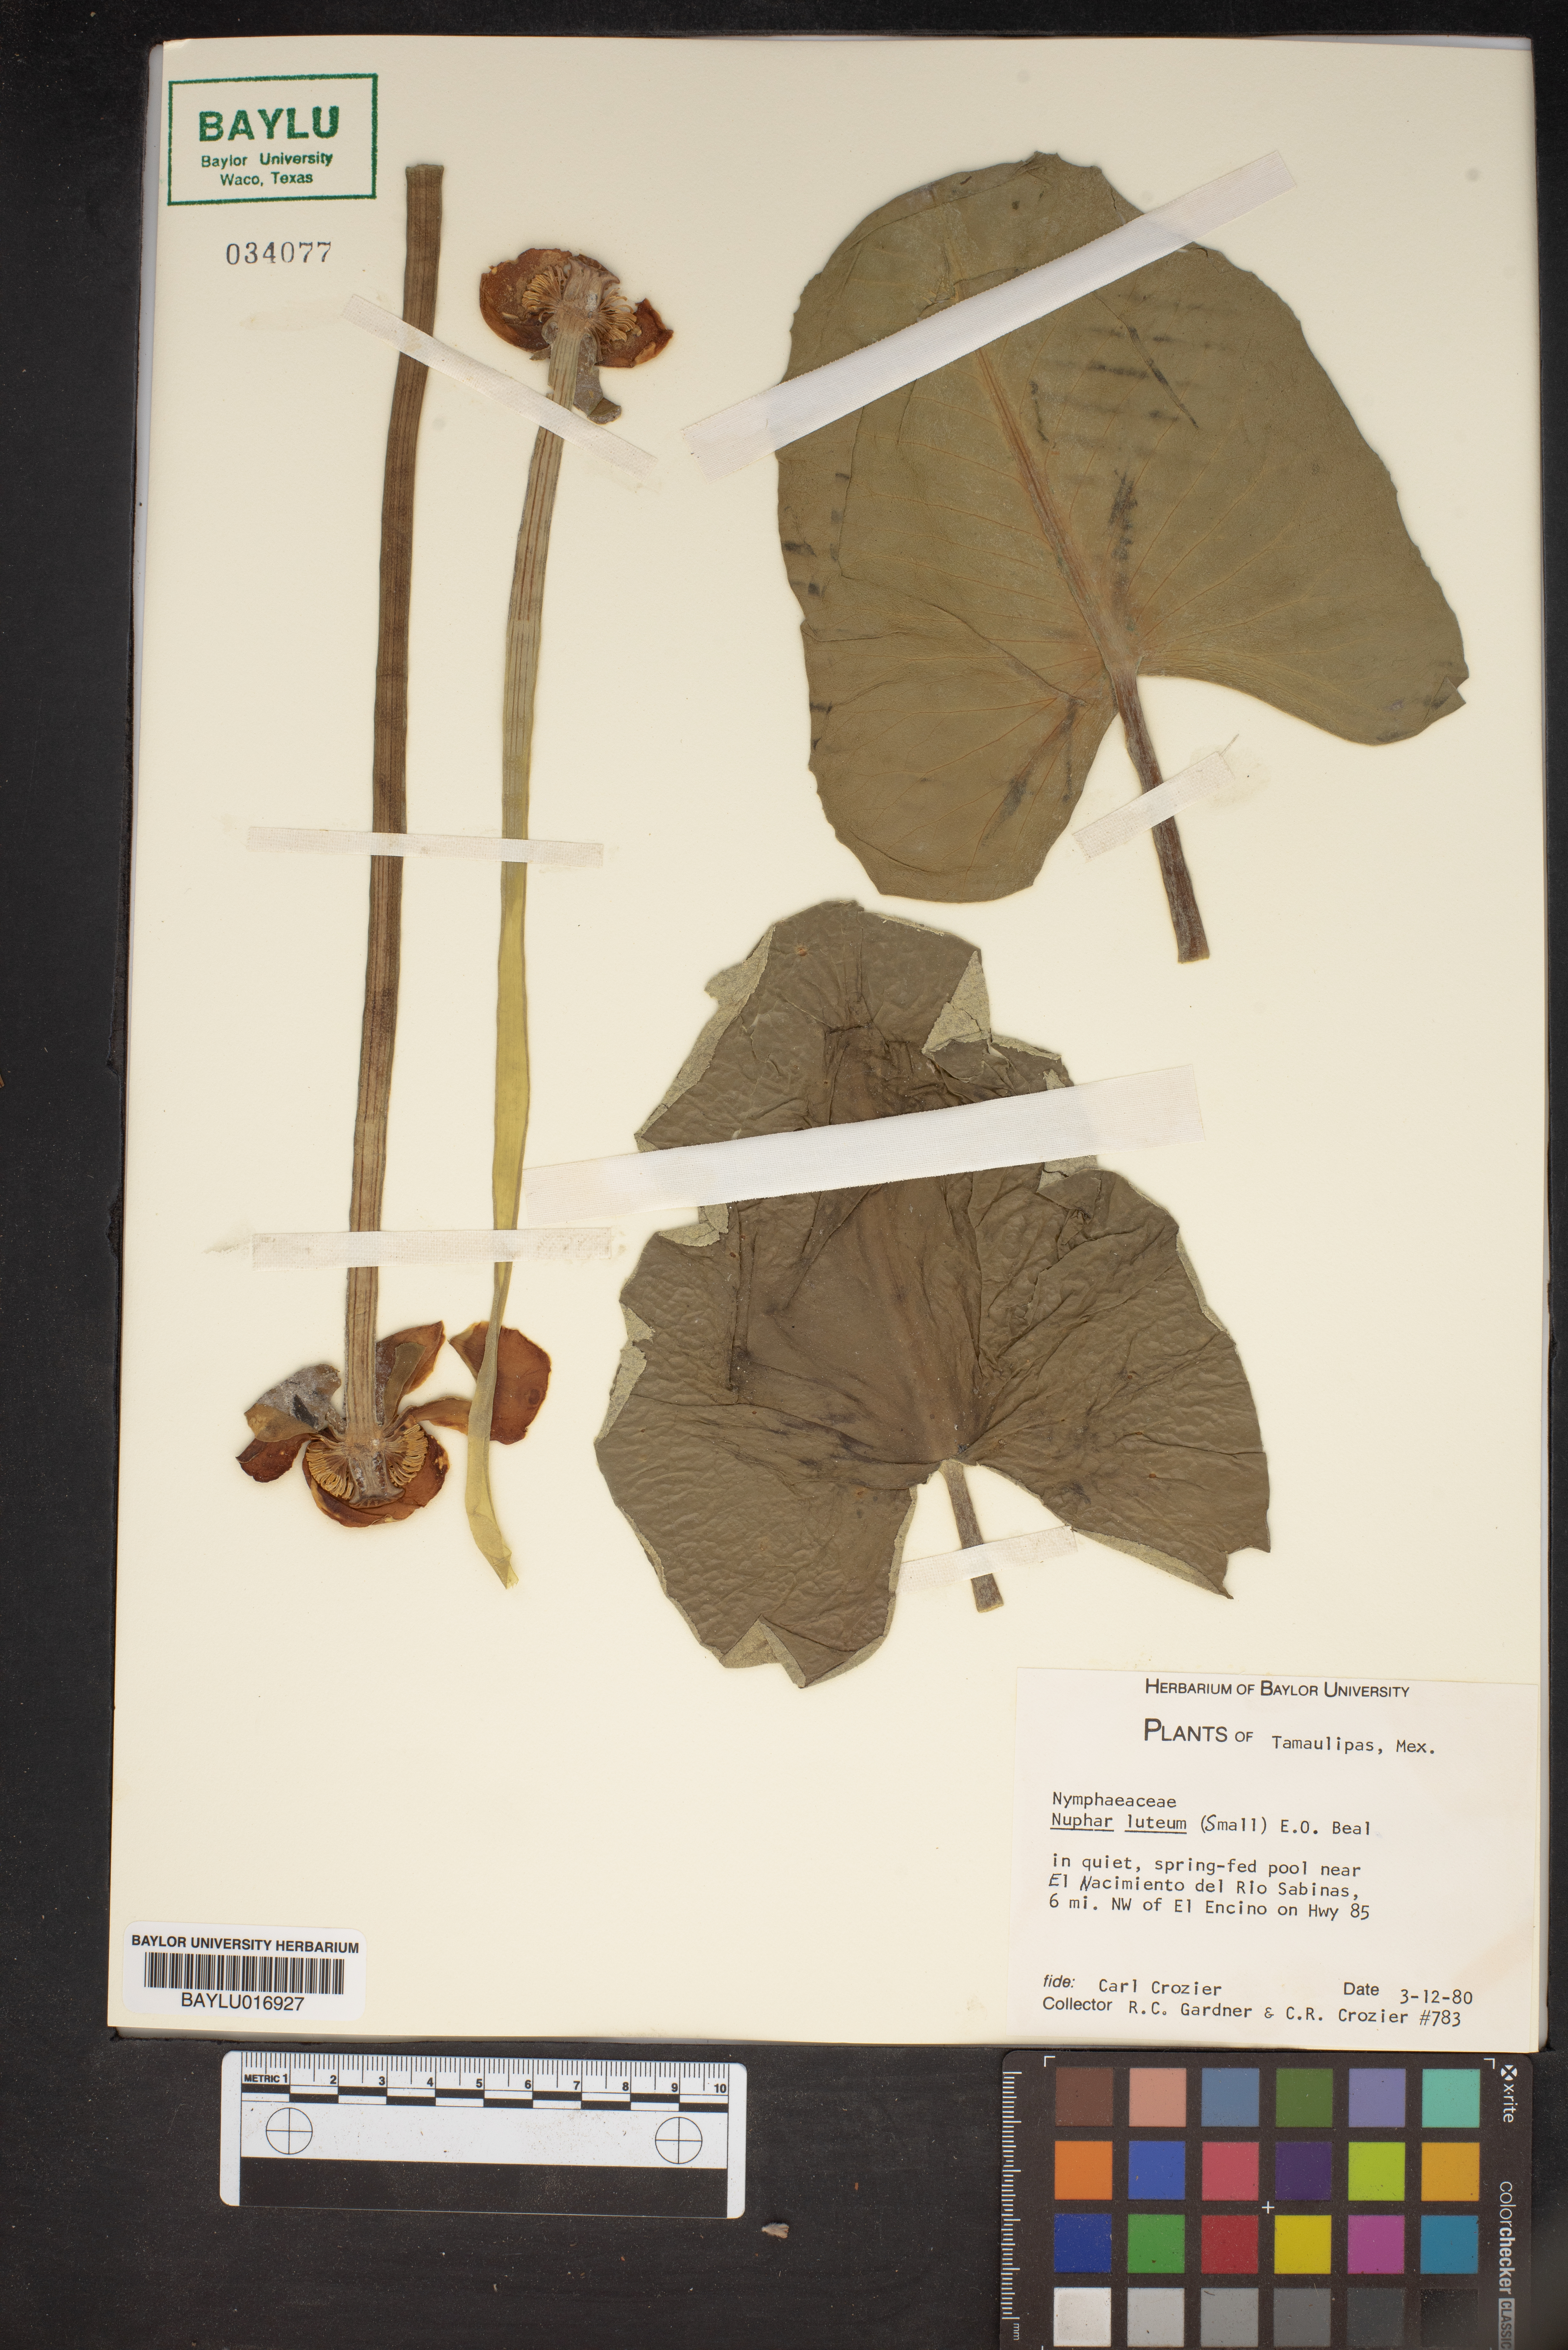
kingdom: Plantae
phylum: Tracheophyta
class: Magnoliopsida
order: Nymphaeales
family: Nymphaeaceae
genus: Nuphar
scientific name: Nuphar lutea
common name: Yellow water-lily
